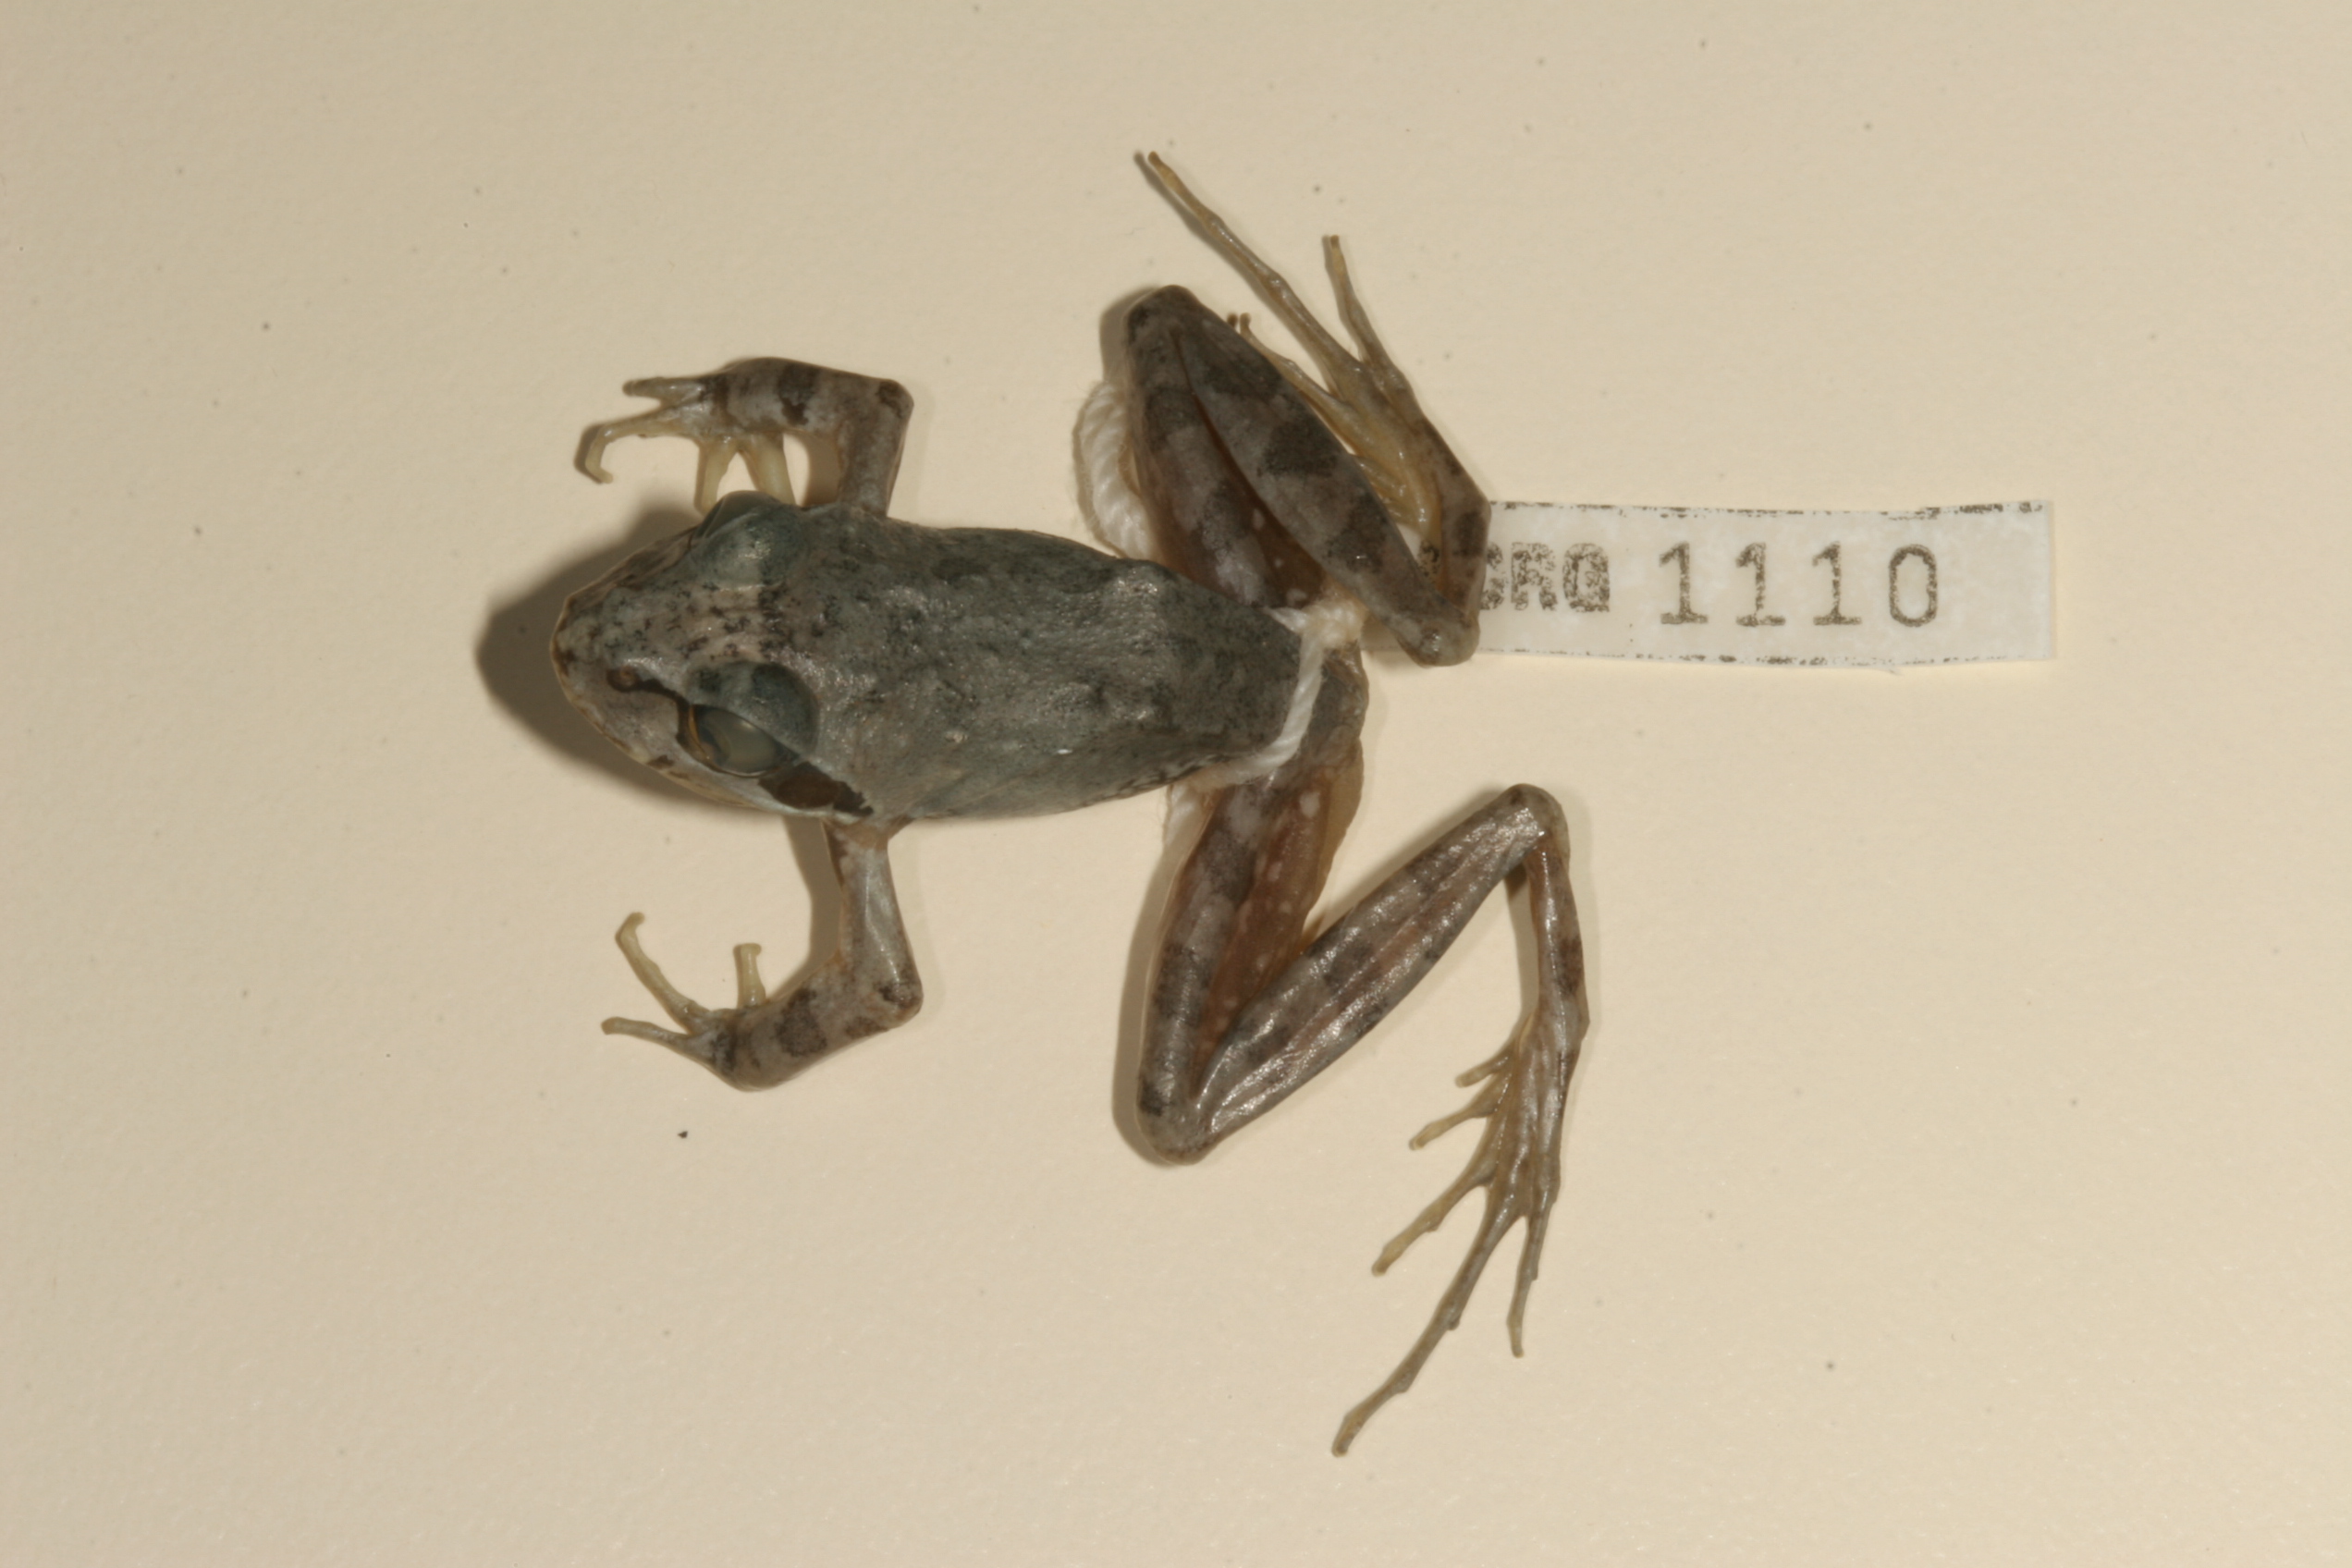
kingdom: Animalia
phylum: Chordata
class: Amphibia
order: Anura
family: Pyxicephalidae
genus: Strongylopus
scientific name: Strongylopus grayii
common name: Gray's stream frog
